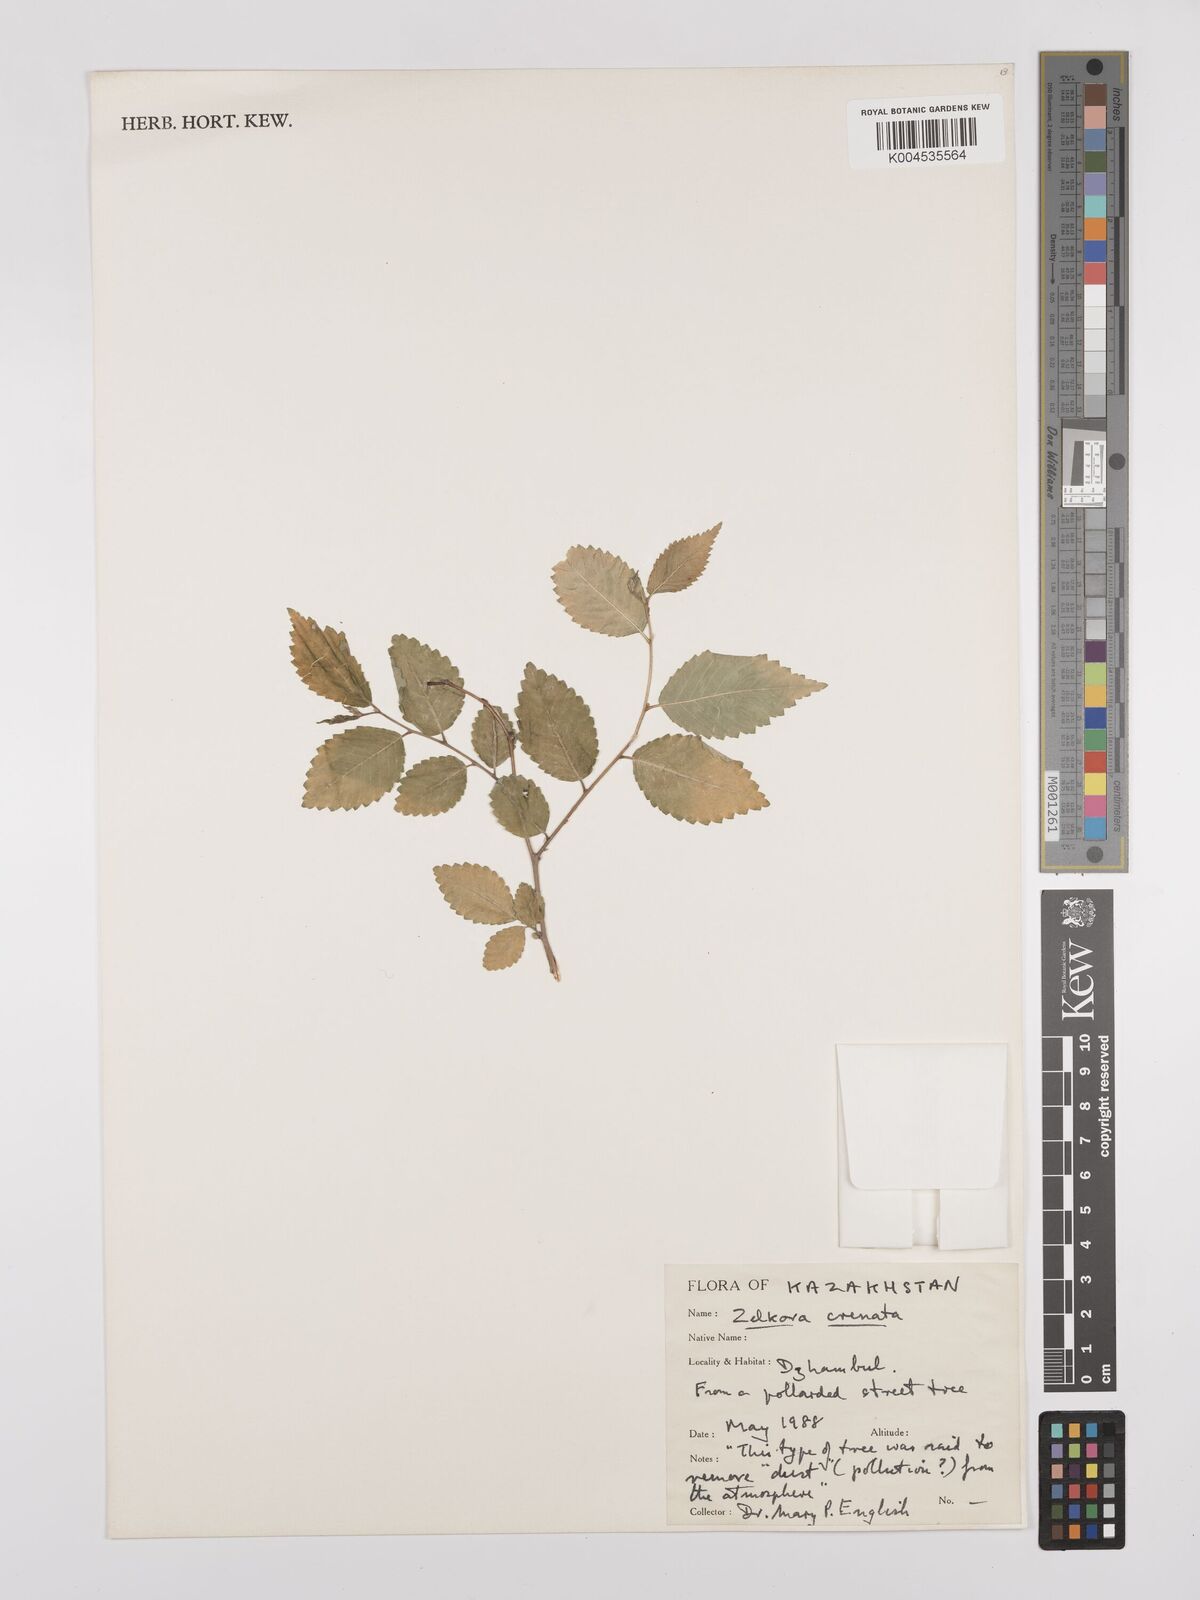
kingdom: Plantae
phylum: Tracheophyta
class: Magnoliopsida
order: Rosales
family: Ulmaceae
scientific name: Ulmaceae
